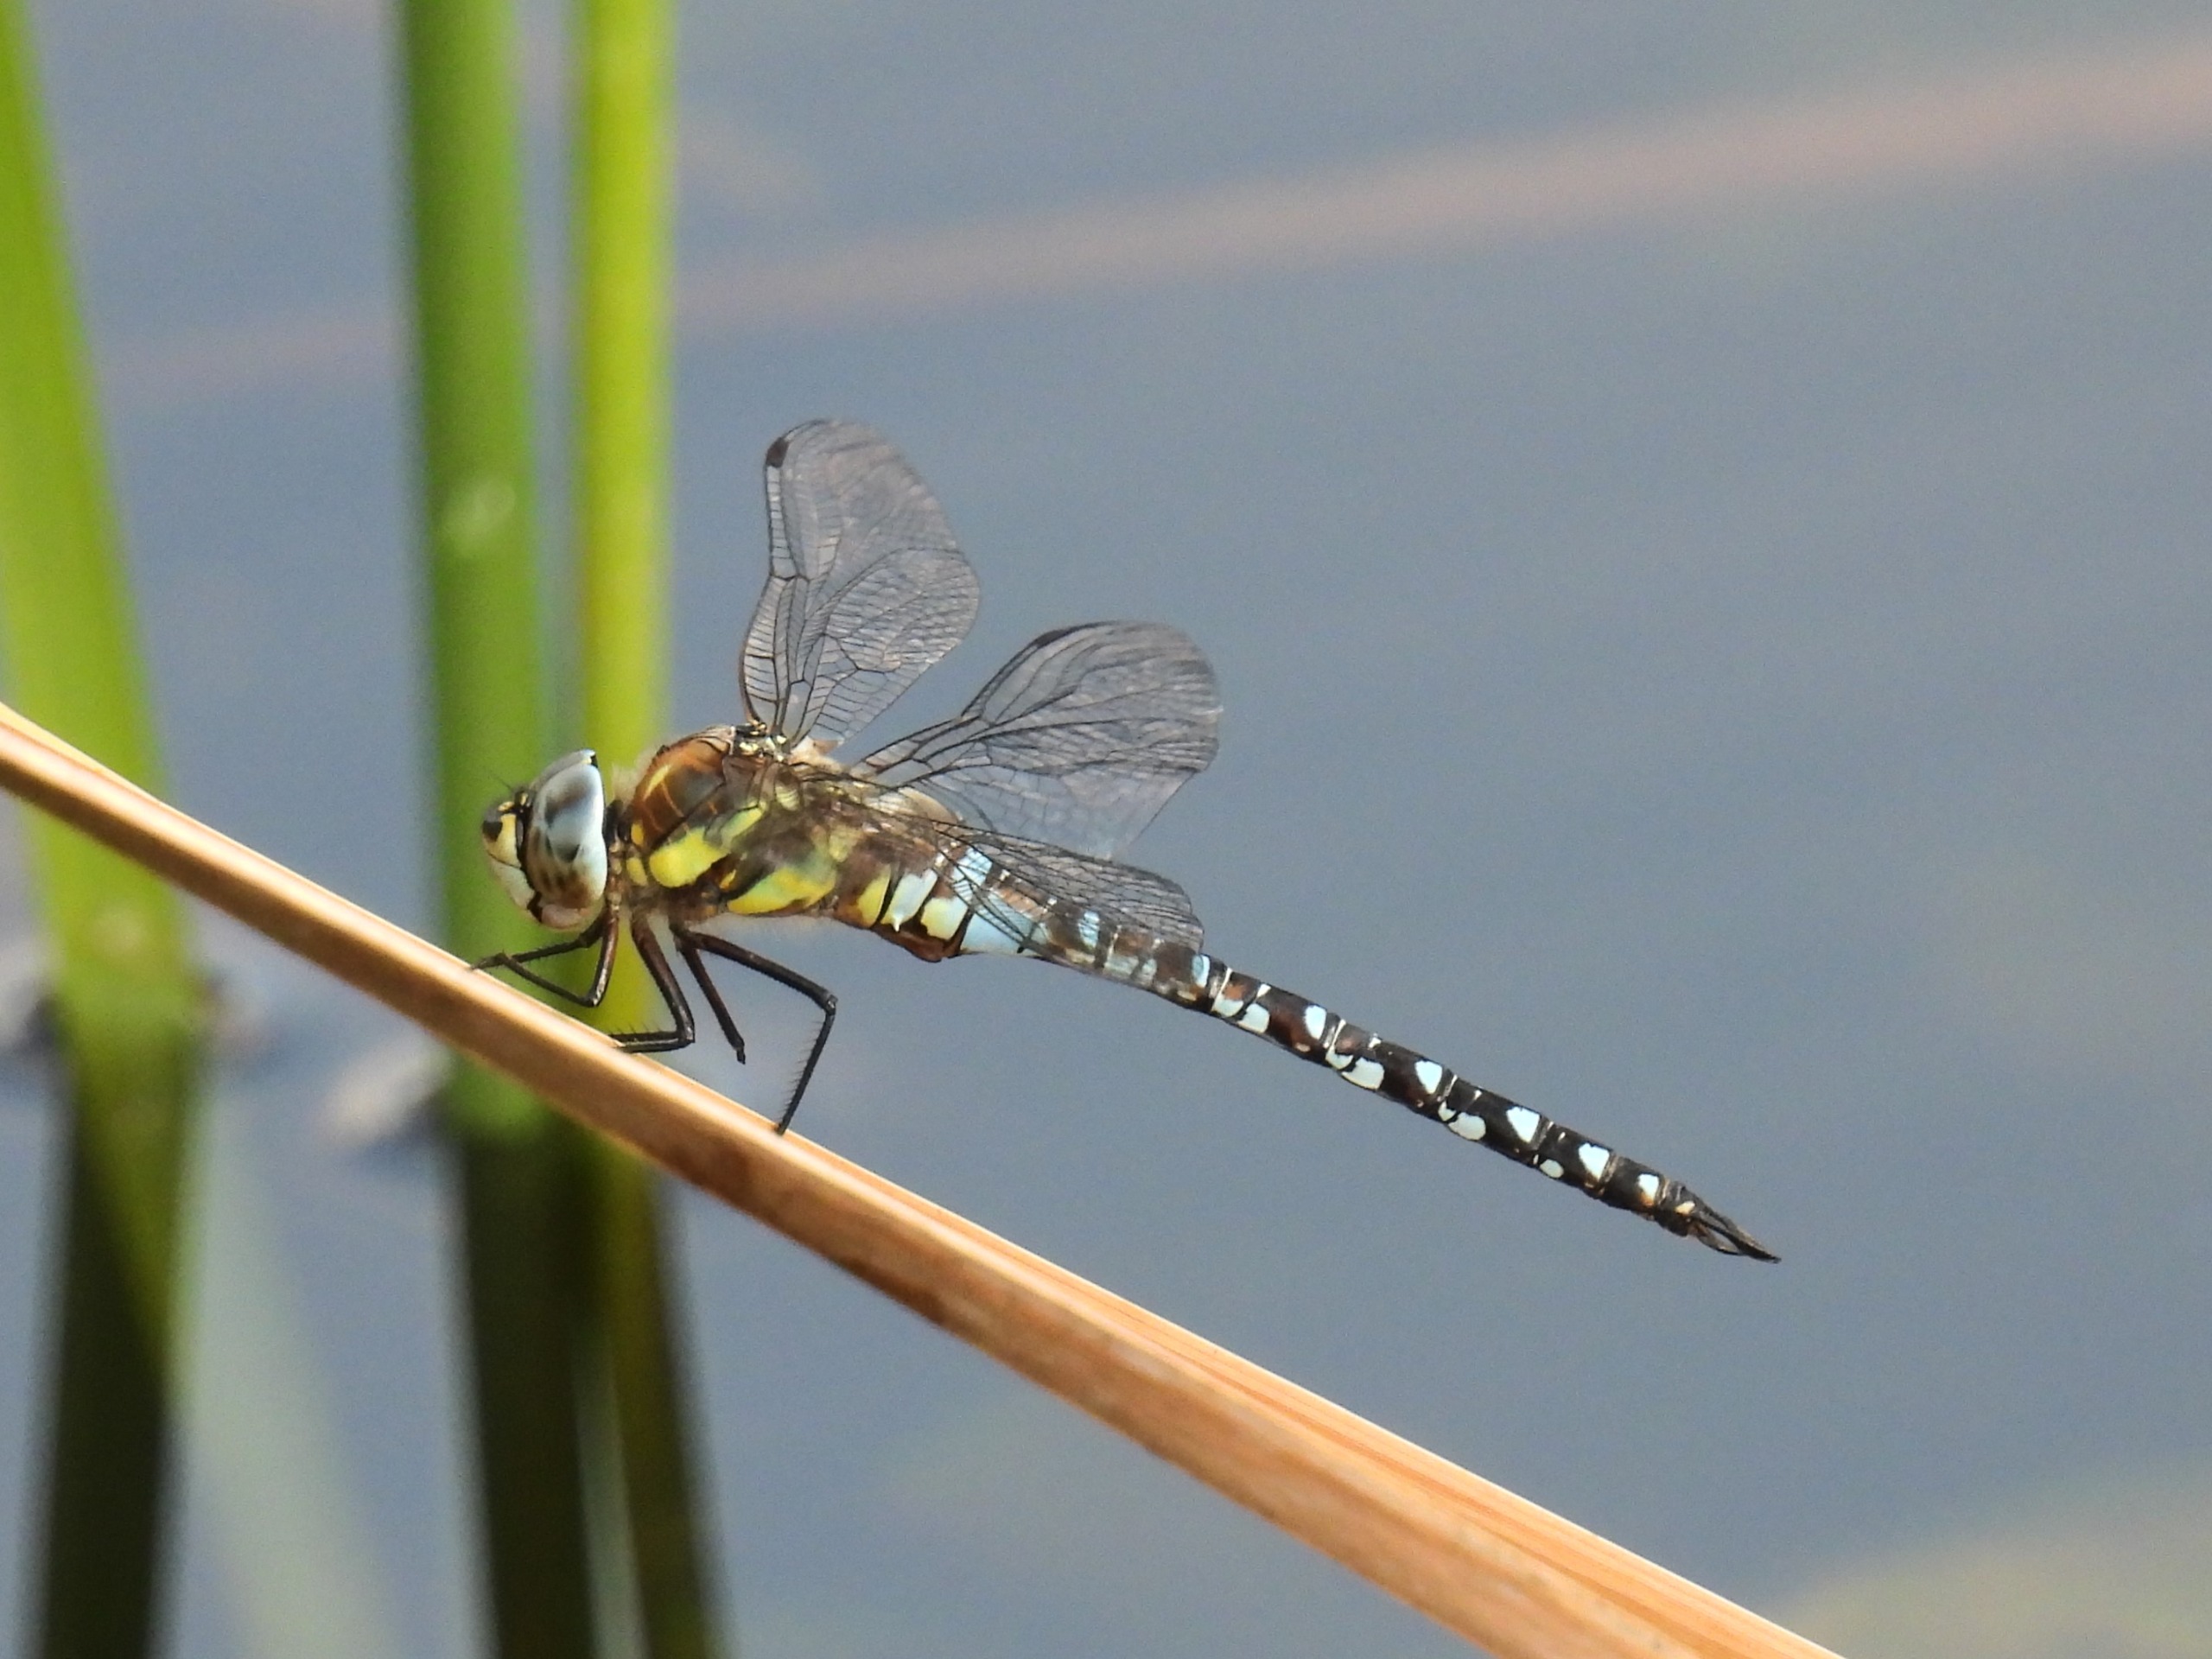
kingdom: Animalia
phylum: Arthropoda
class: Insecta
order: Odonata
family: Aeshnidae
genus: Aeshna
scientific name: Aeshna mixta
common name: Efterårs-mosaikguldsmed
